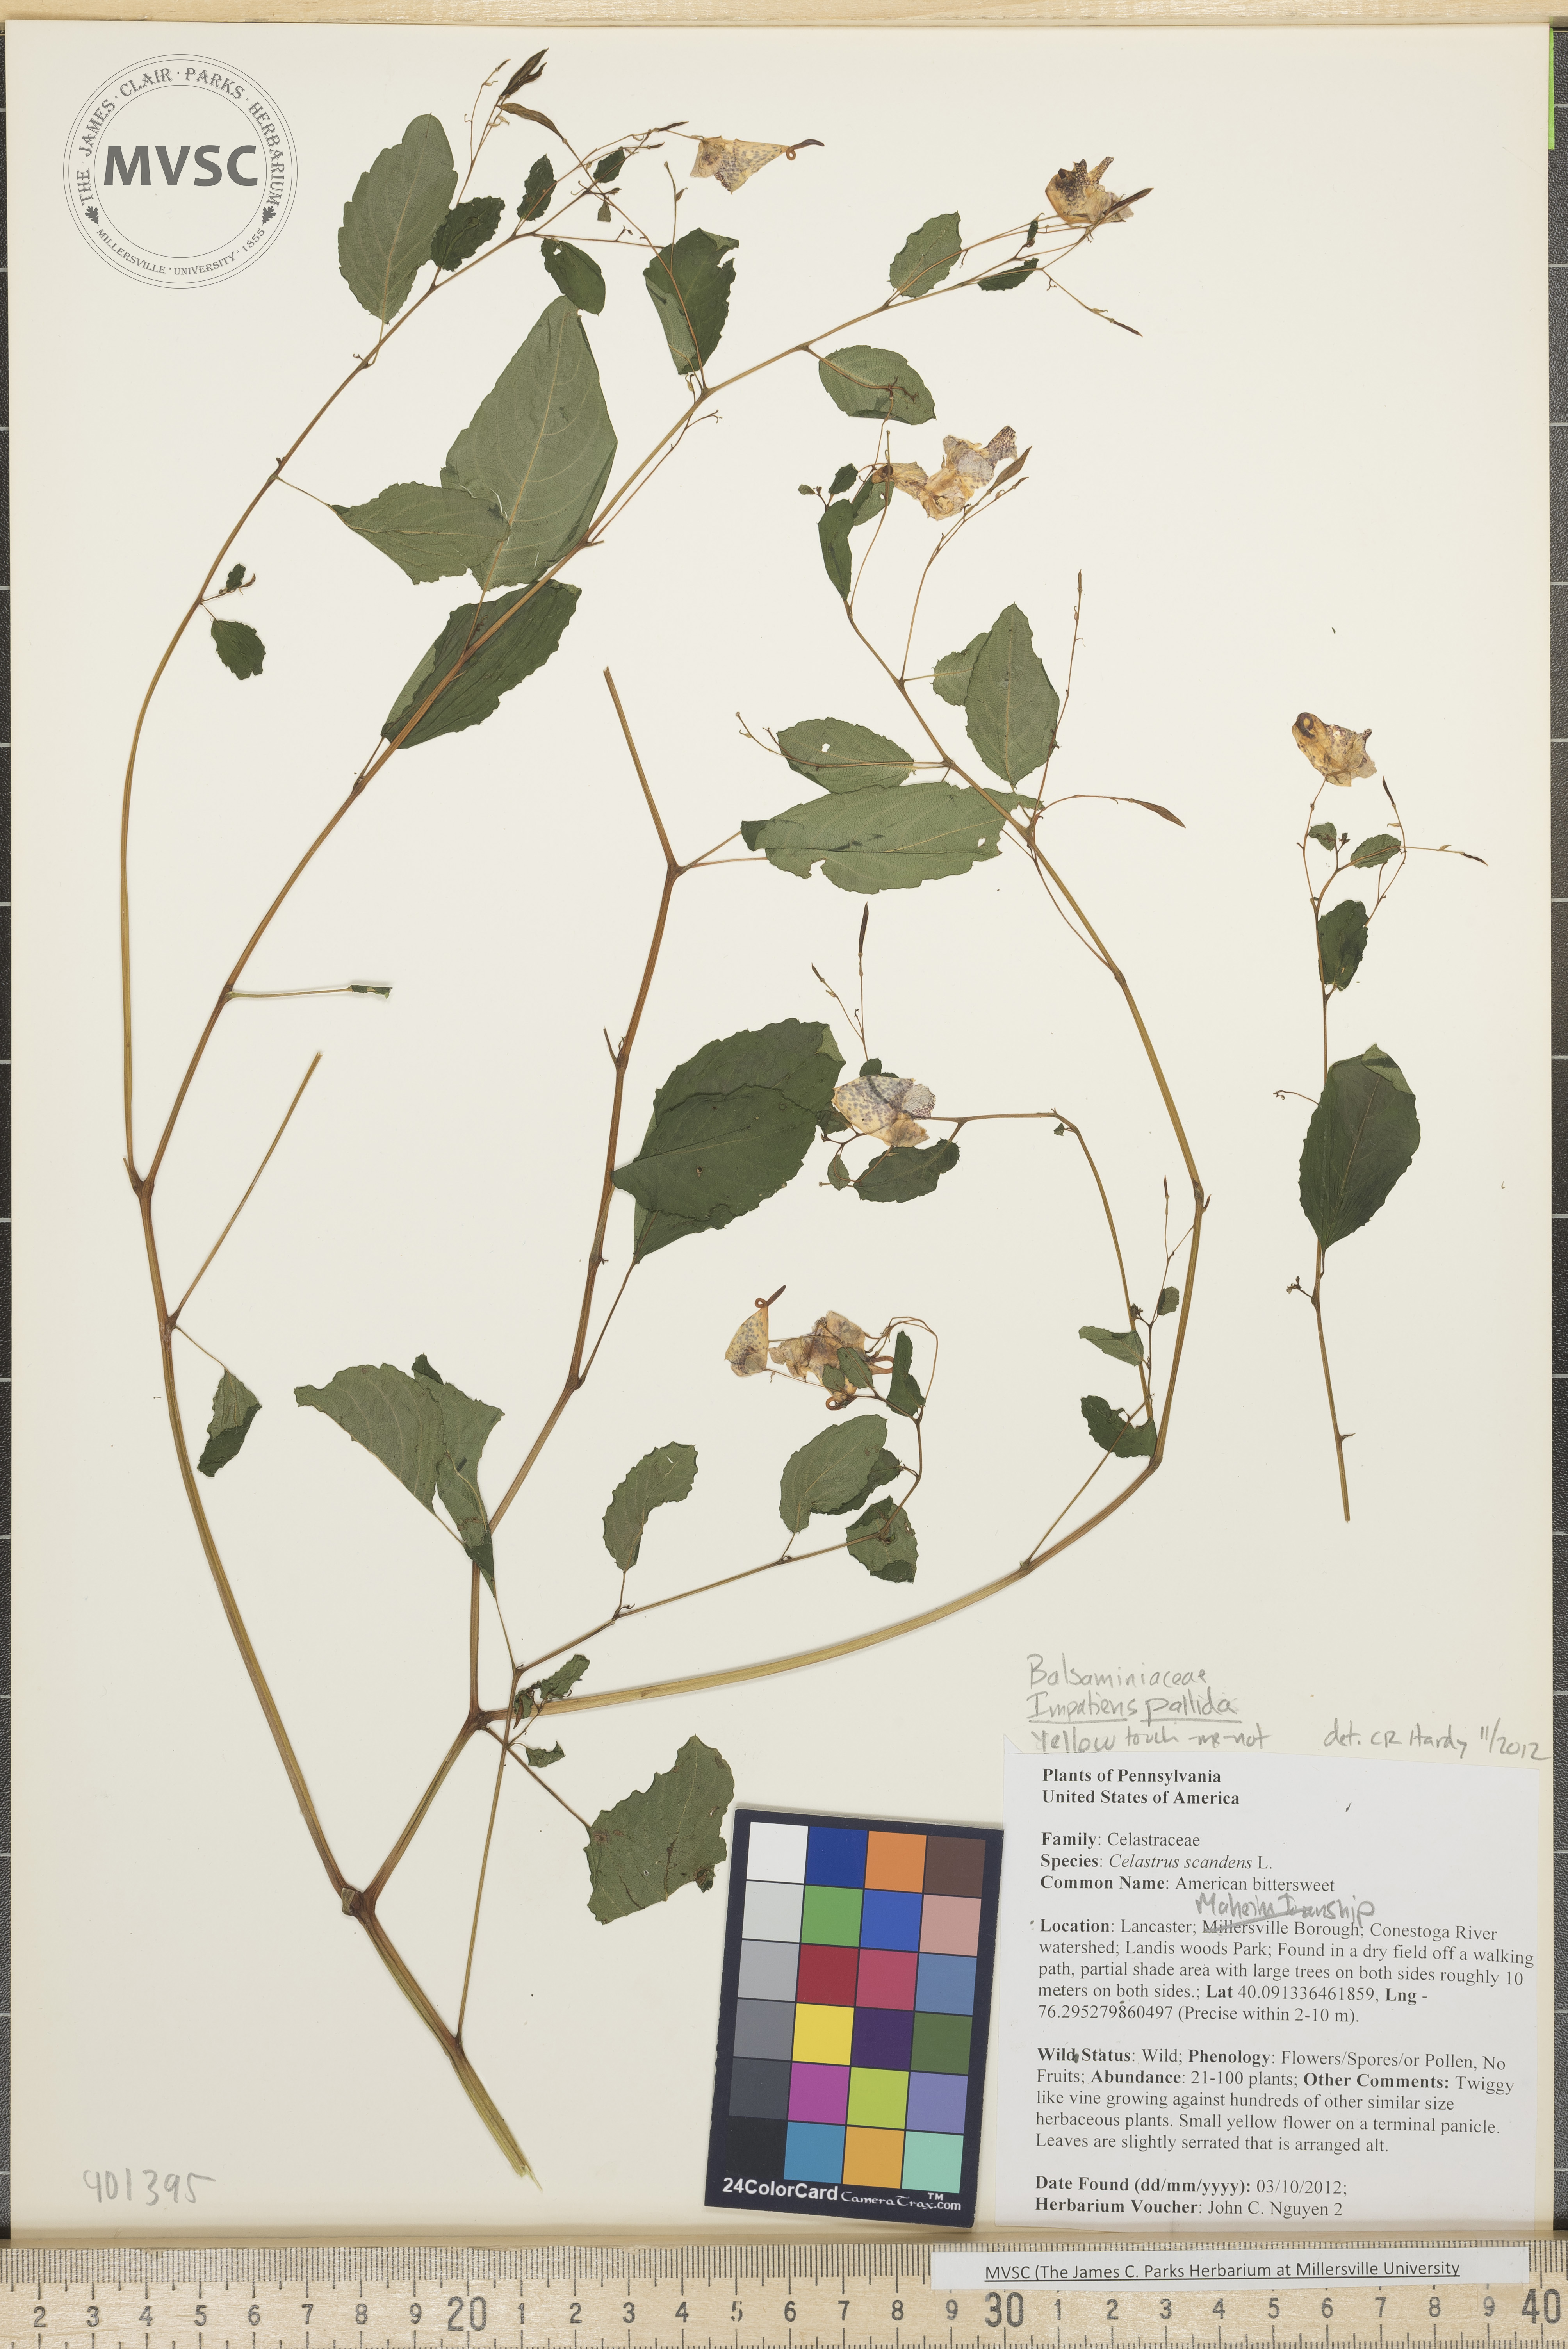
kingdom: Plantae
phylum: Tracheophyta
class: Magnoliopsida
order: Ericales
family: Balsaminaceae
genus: Impatiens
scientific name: Impatiens pallida
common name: pale yellow touch-me-not
